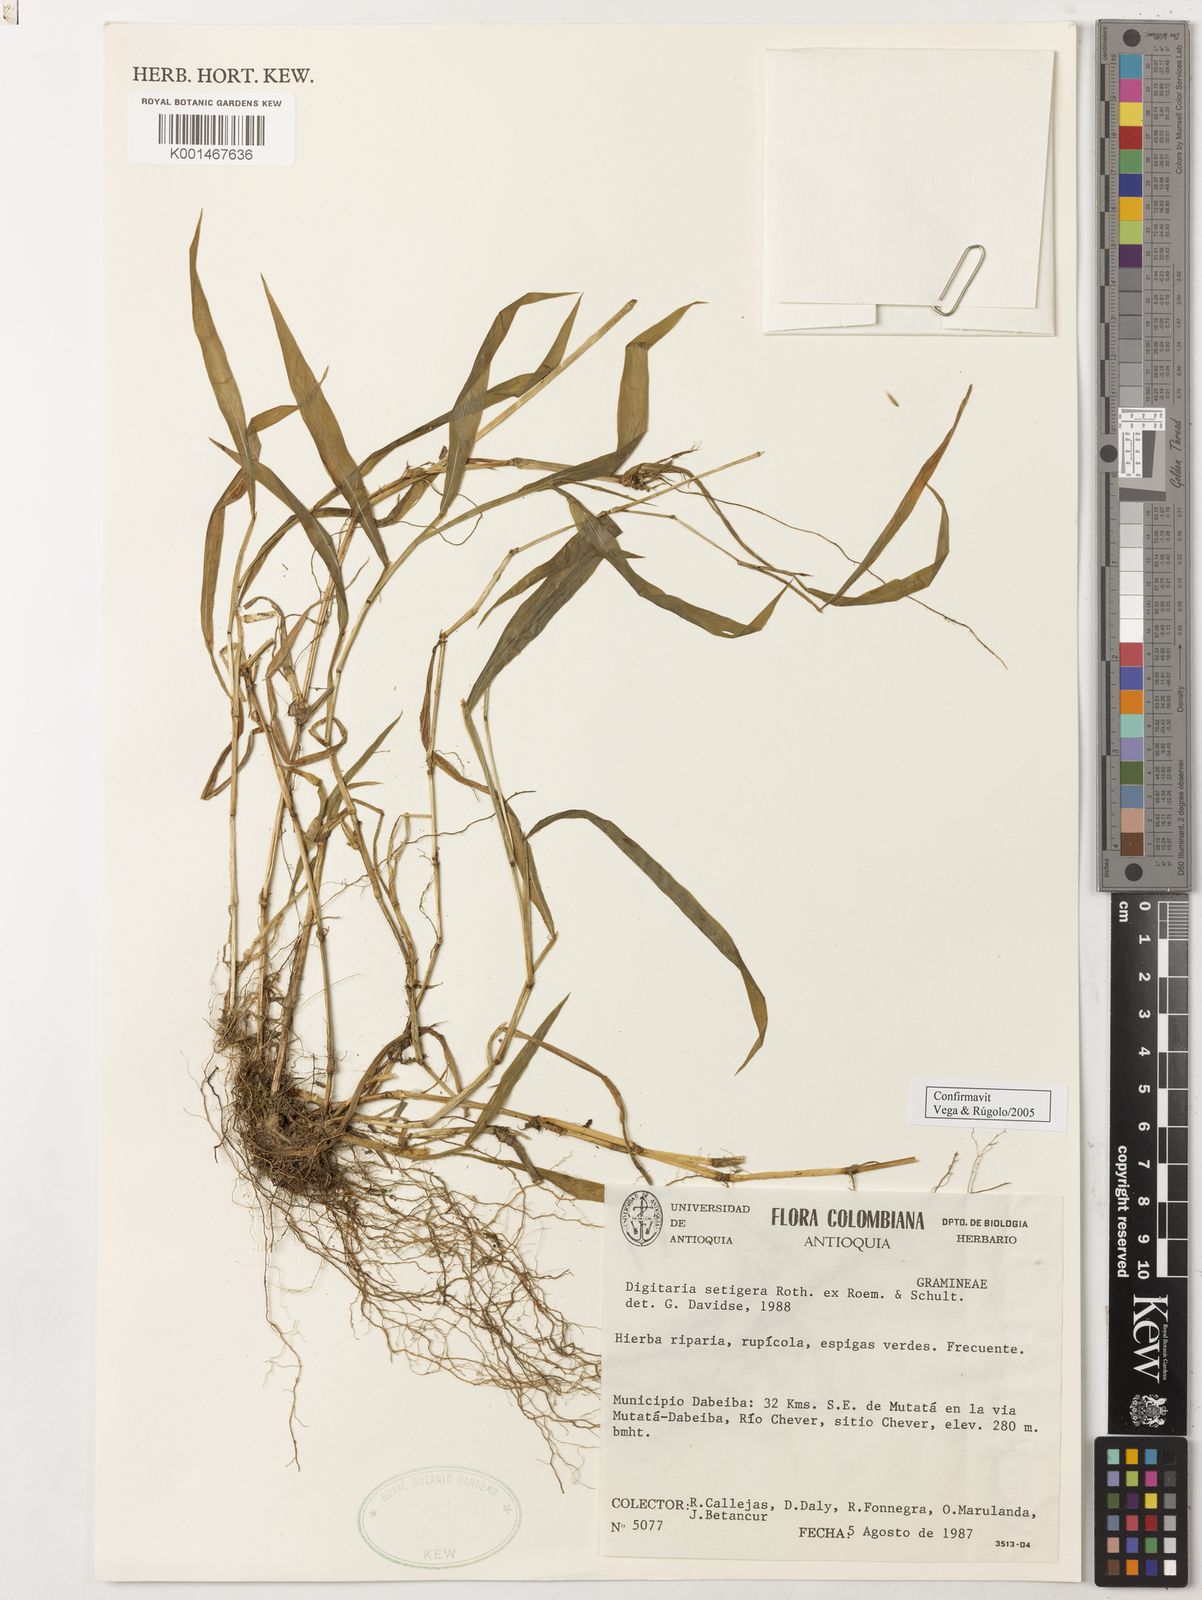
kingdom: Plantae
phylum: Tracheophyta
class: Liliopsida
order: Poales
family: Poaceae
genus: Digitaria
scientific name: Digitaria
